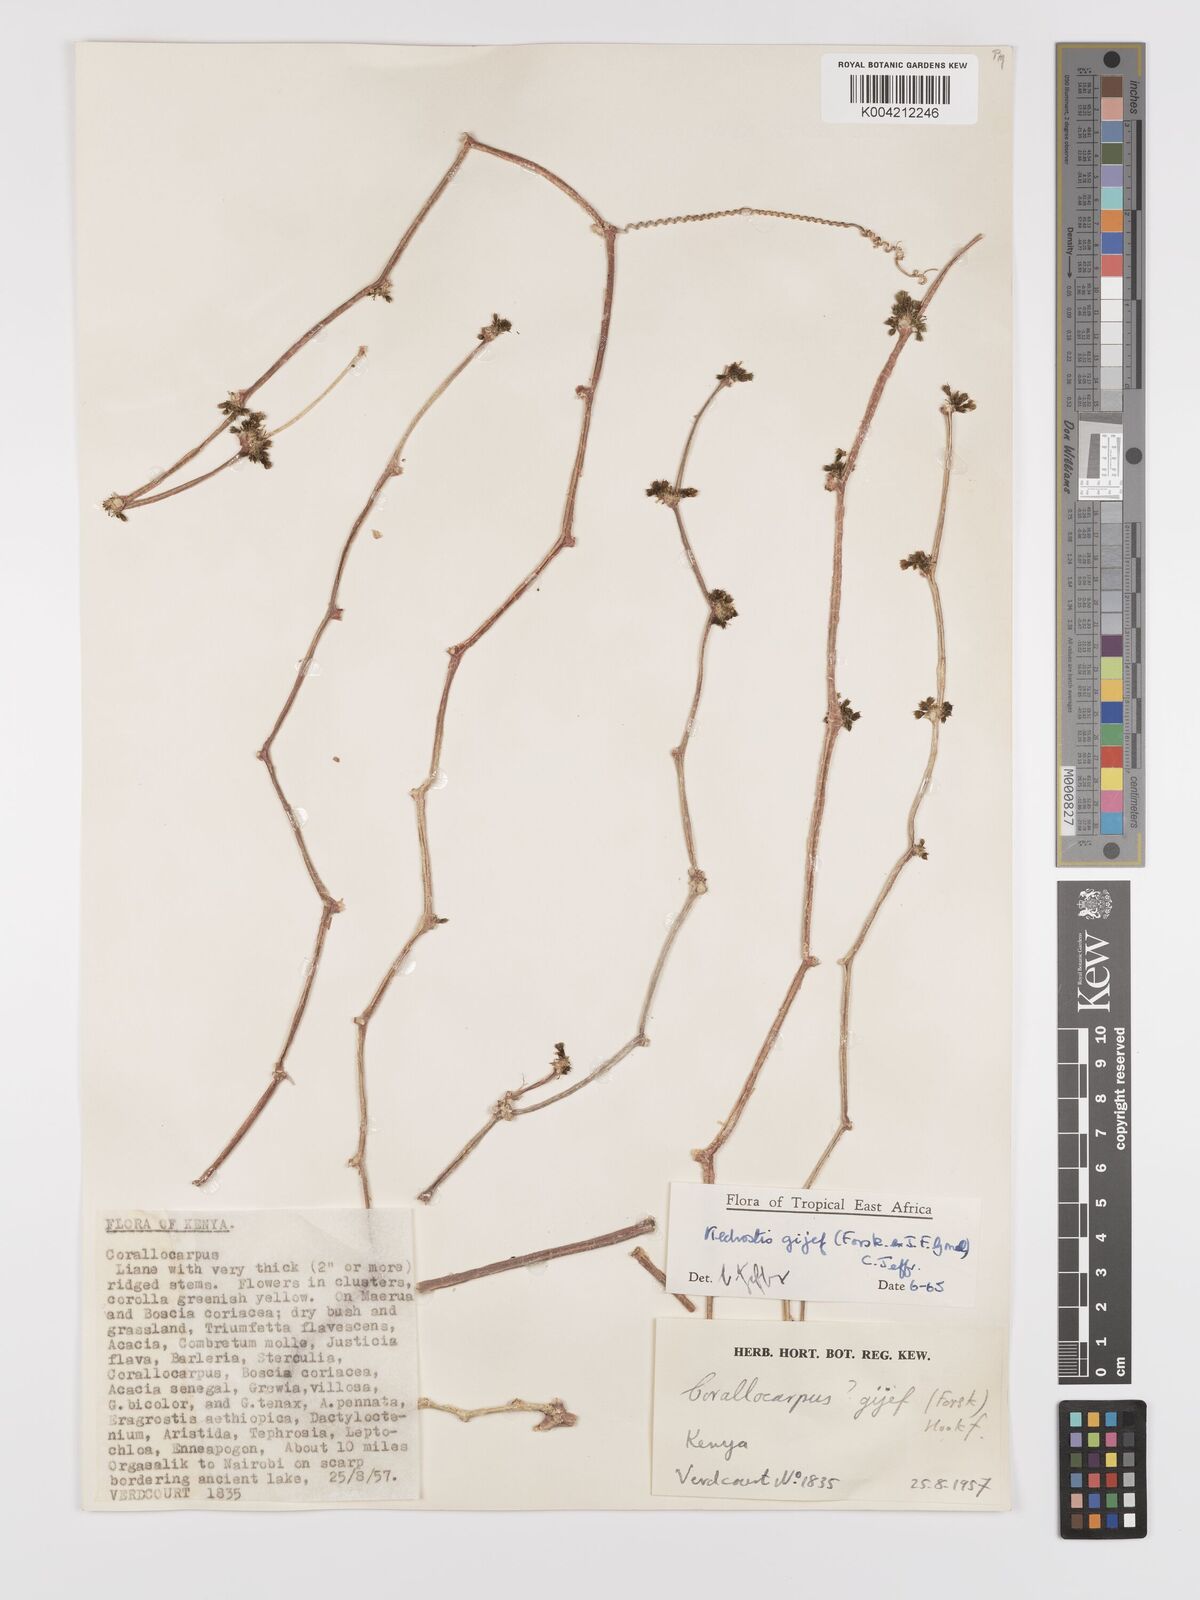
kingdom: Plantae
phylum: Tracheophyta
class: Magnoliopsida
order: Cucurbitales
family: Cucurbitaceae
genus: Kedrostis
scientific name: Kedrostis gijef
